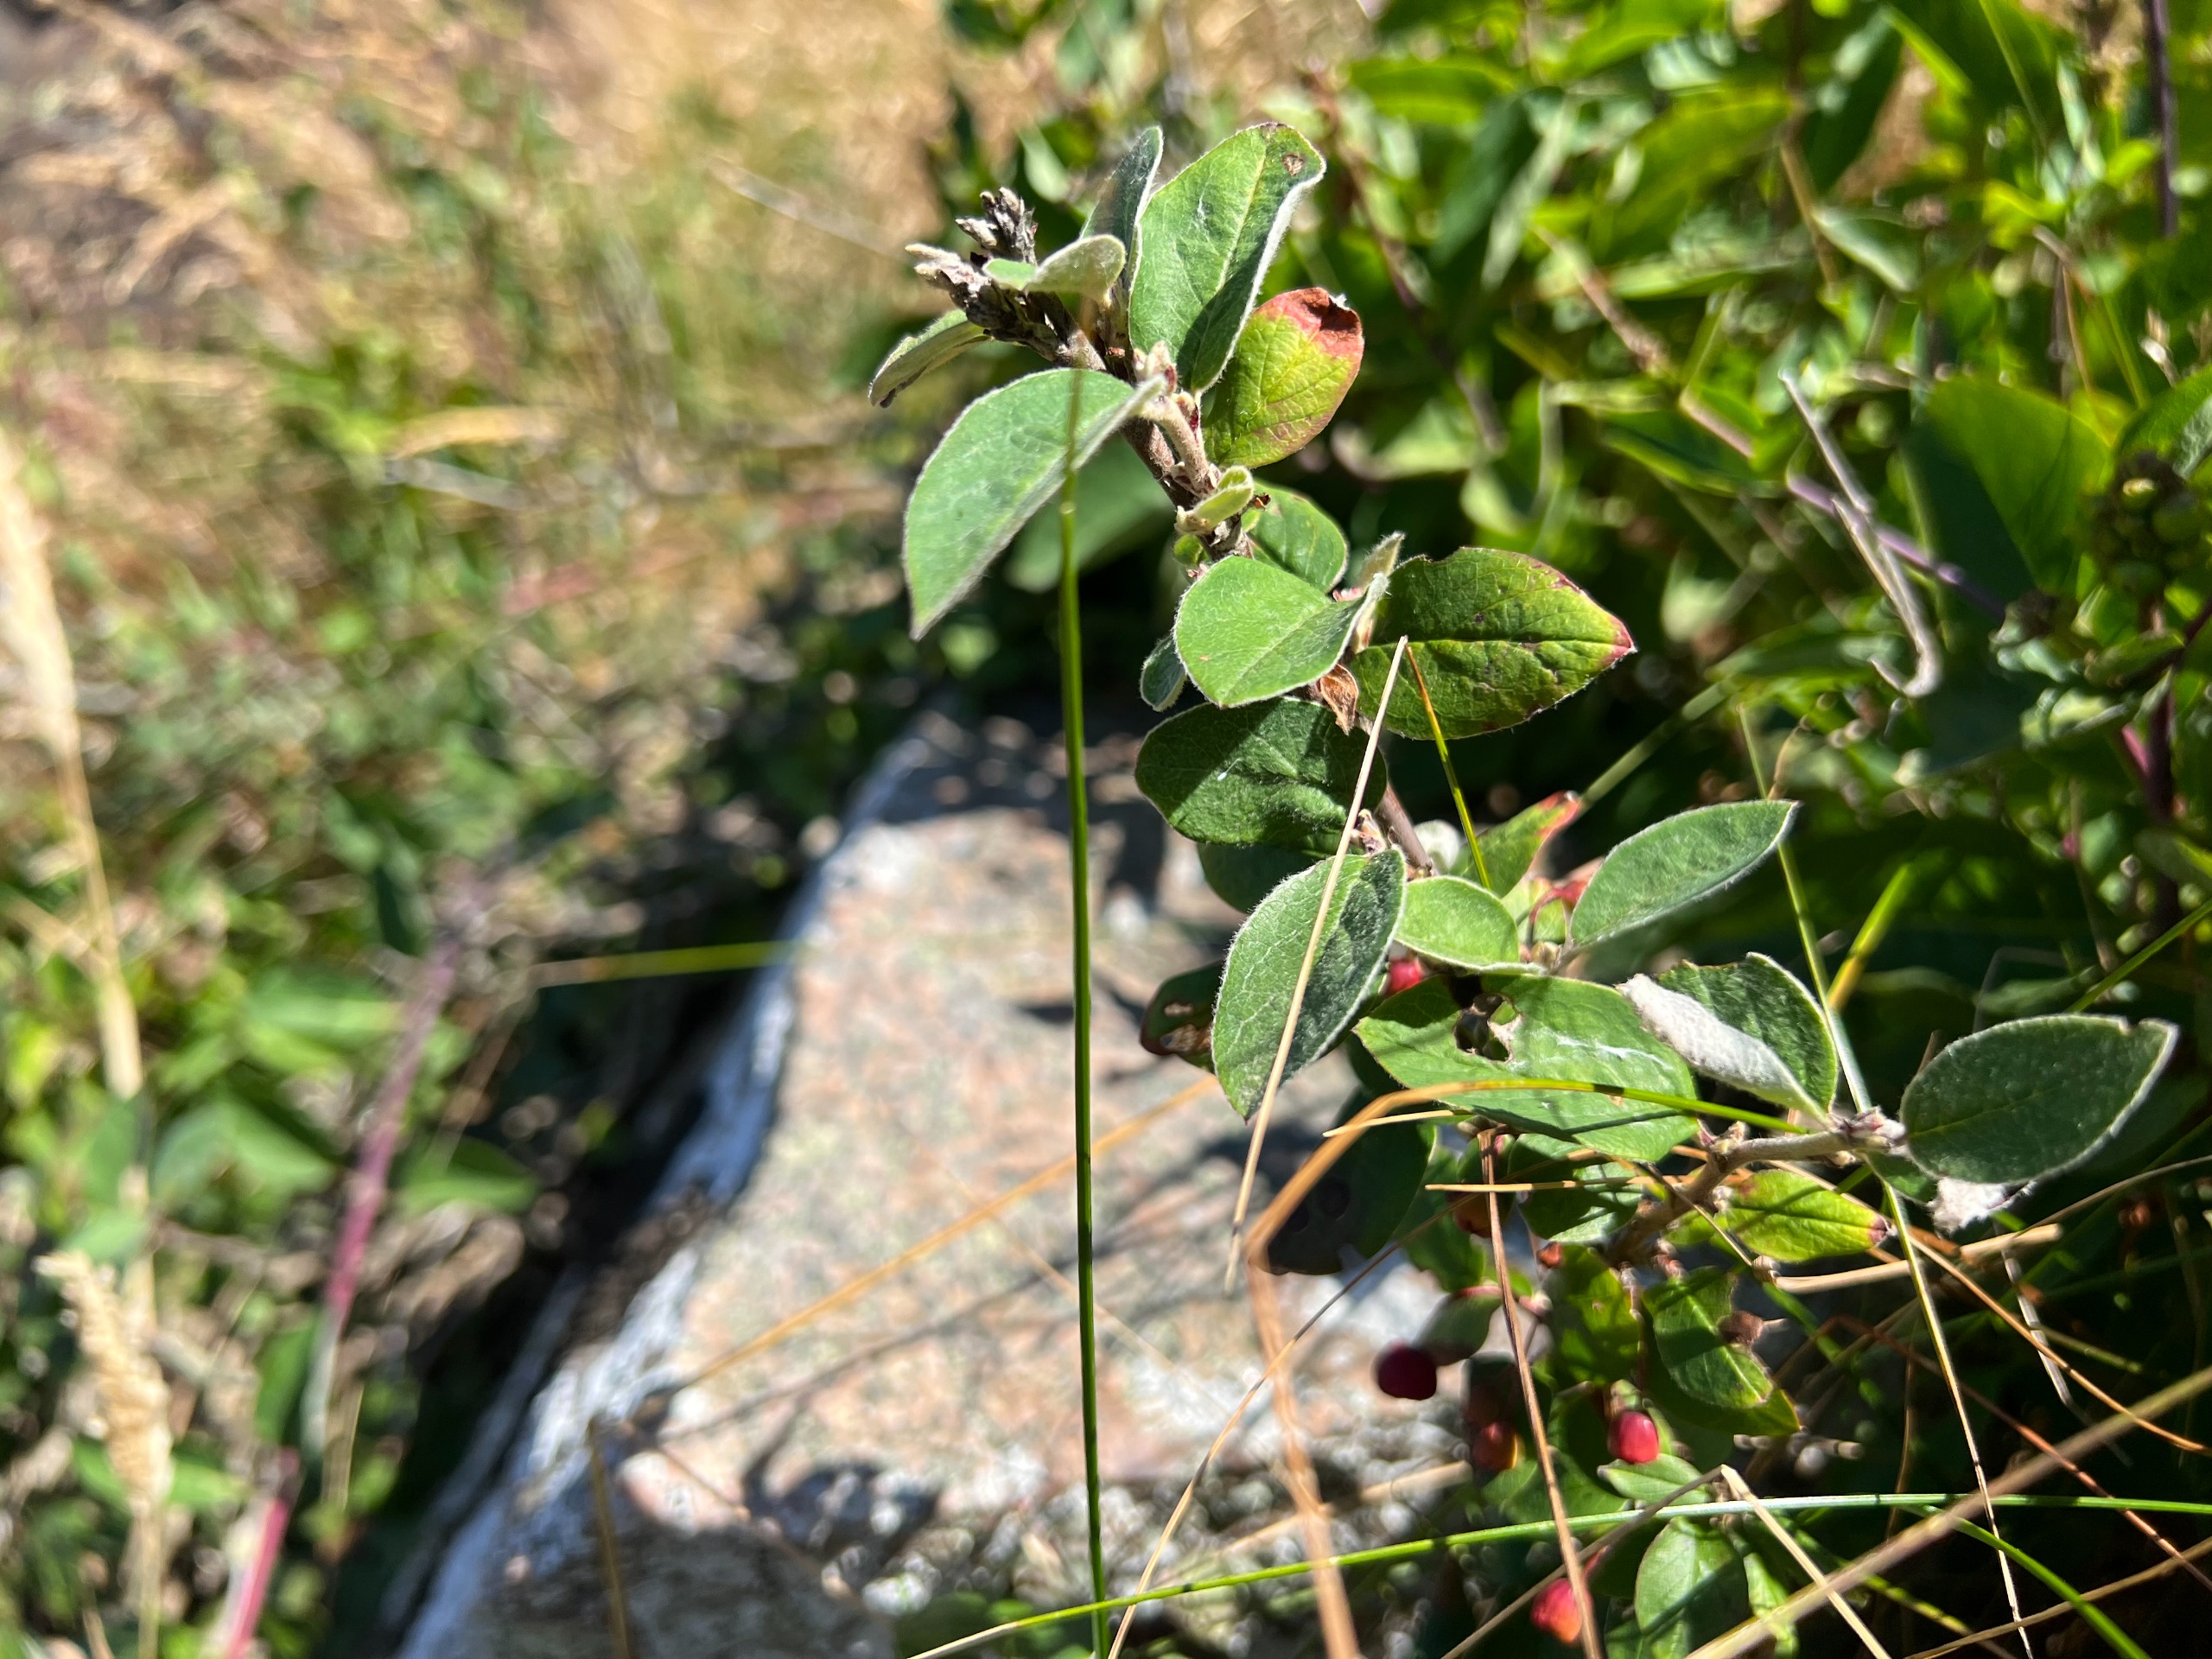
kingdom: Plantae
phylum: Tracheophyta
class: Magnoliopsida
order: Rosales
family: Rosaceae
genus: Cotoneaster
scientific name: Cotoneaster niger
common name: Sort dværgmispel
